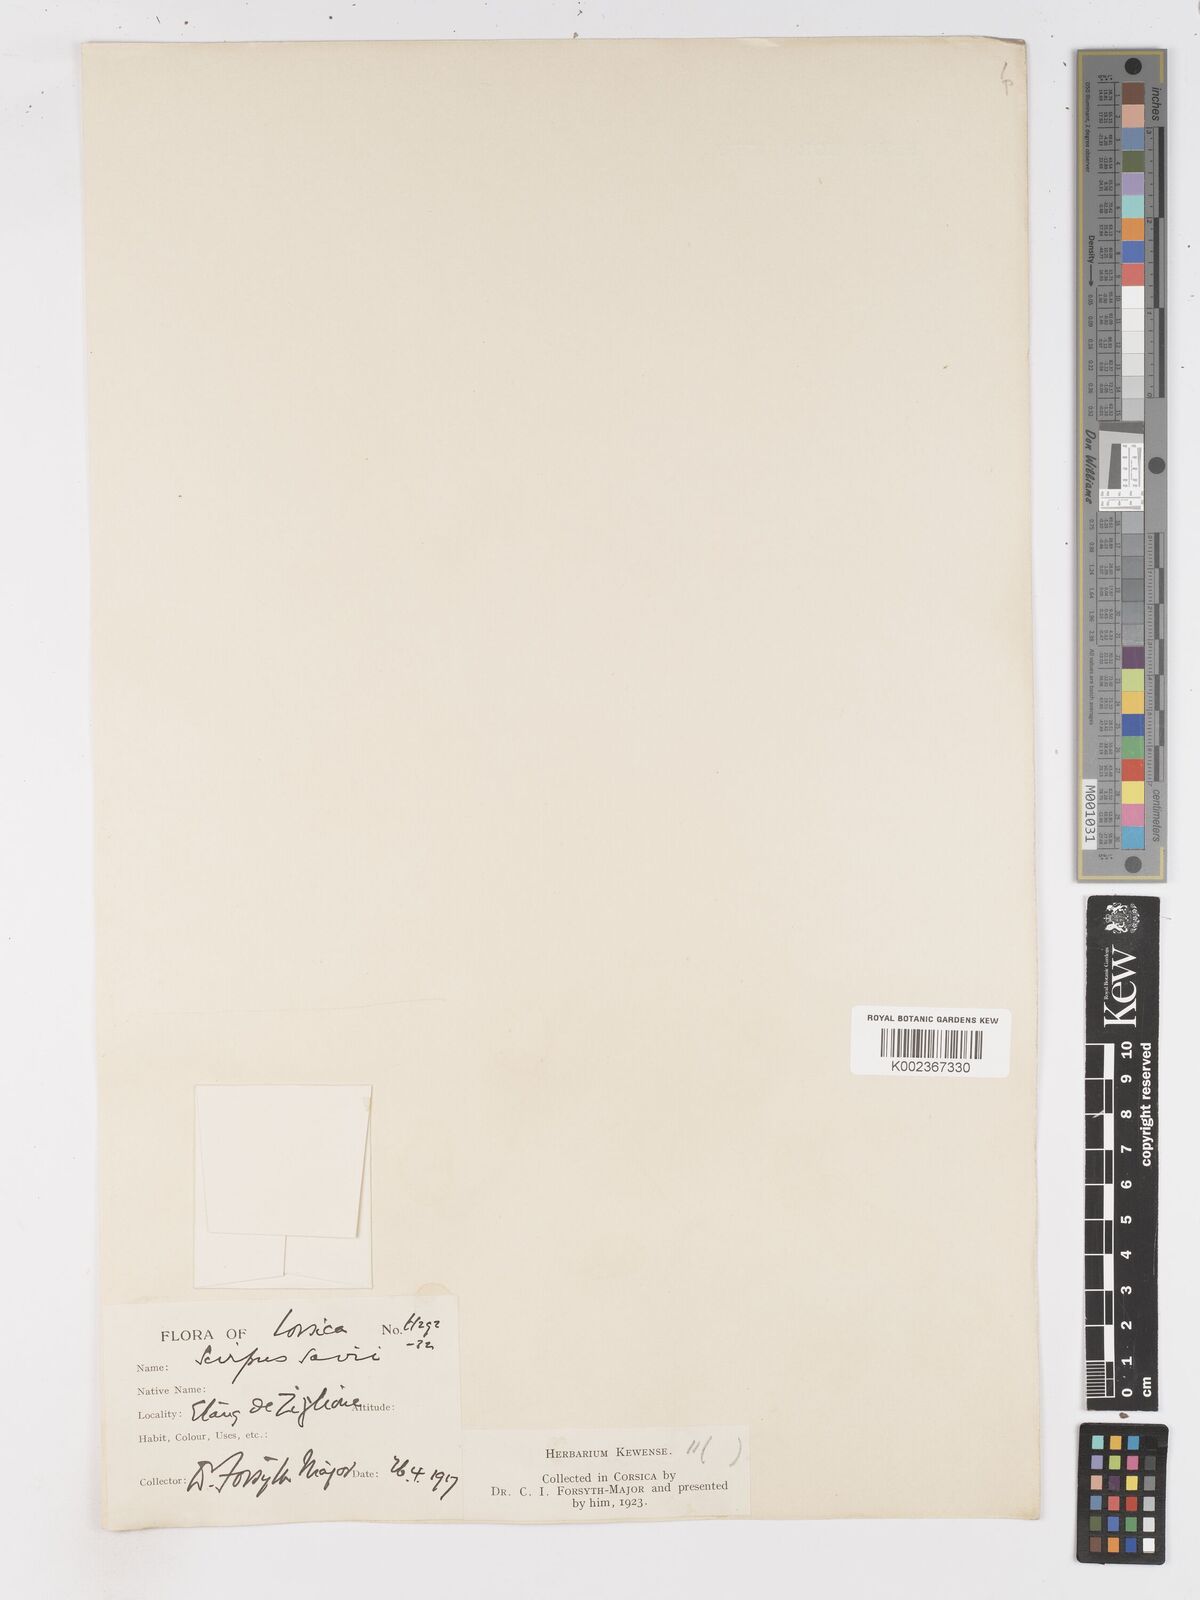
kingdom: Plantae
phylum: Tracheophyta
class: Liliopsida
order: Poales
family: Cyperaceae
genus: Isolepis
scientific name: Isolepis cernua
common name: Slender club-rush
